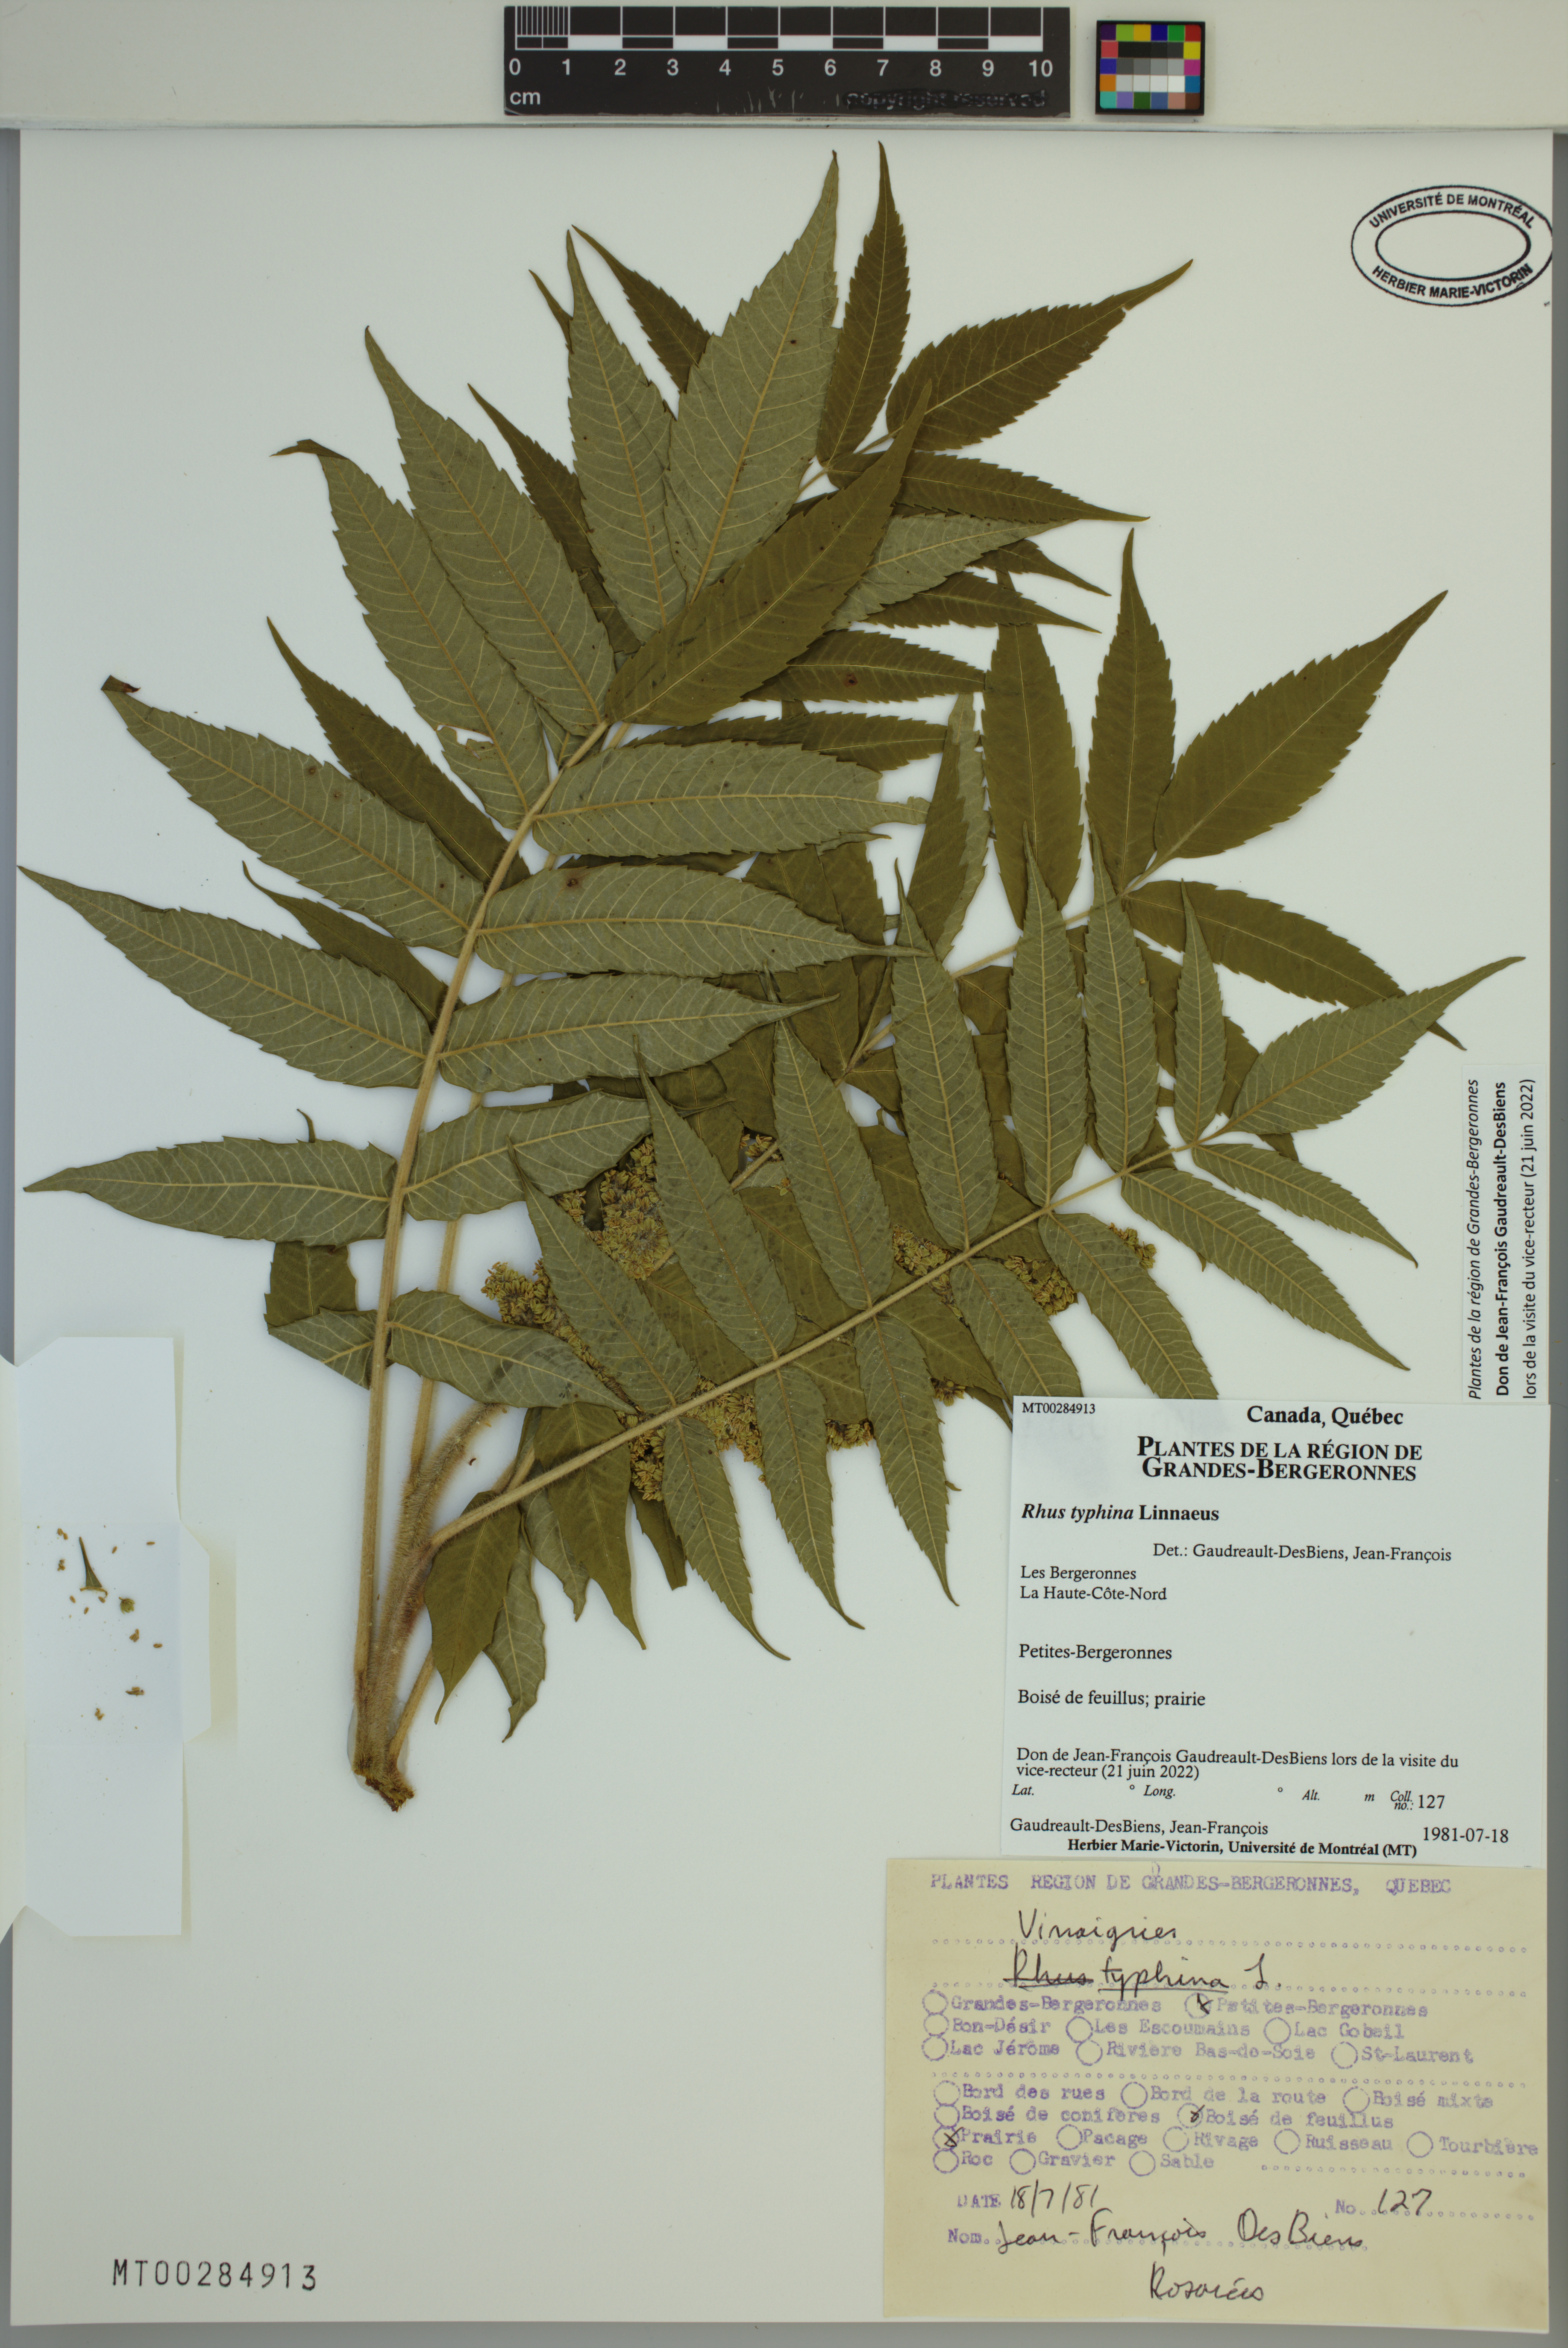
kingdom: Plantae
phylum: Tracheophyta
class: Magnoliopsida
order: Sapindales
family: Anacardiaceae
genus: Rhus
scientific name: Rhus typhina
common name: Staghorn sumac
